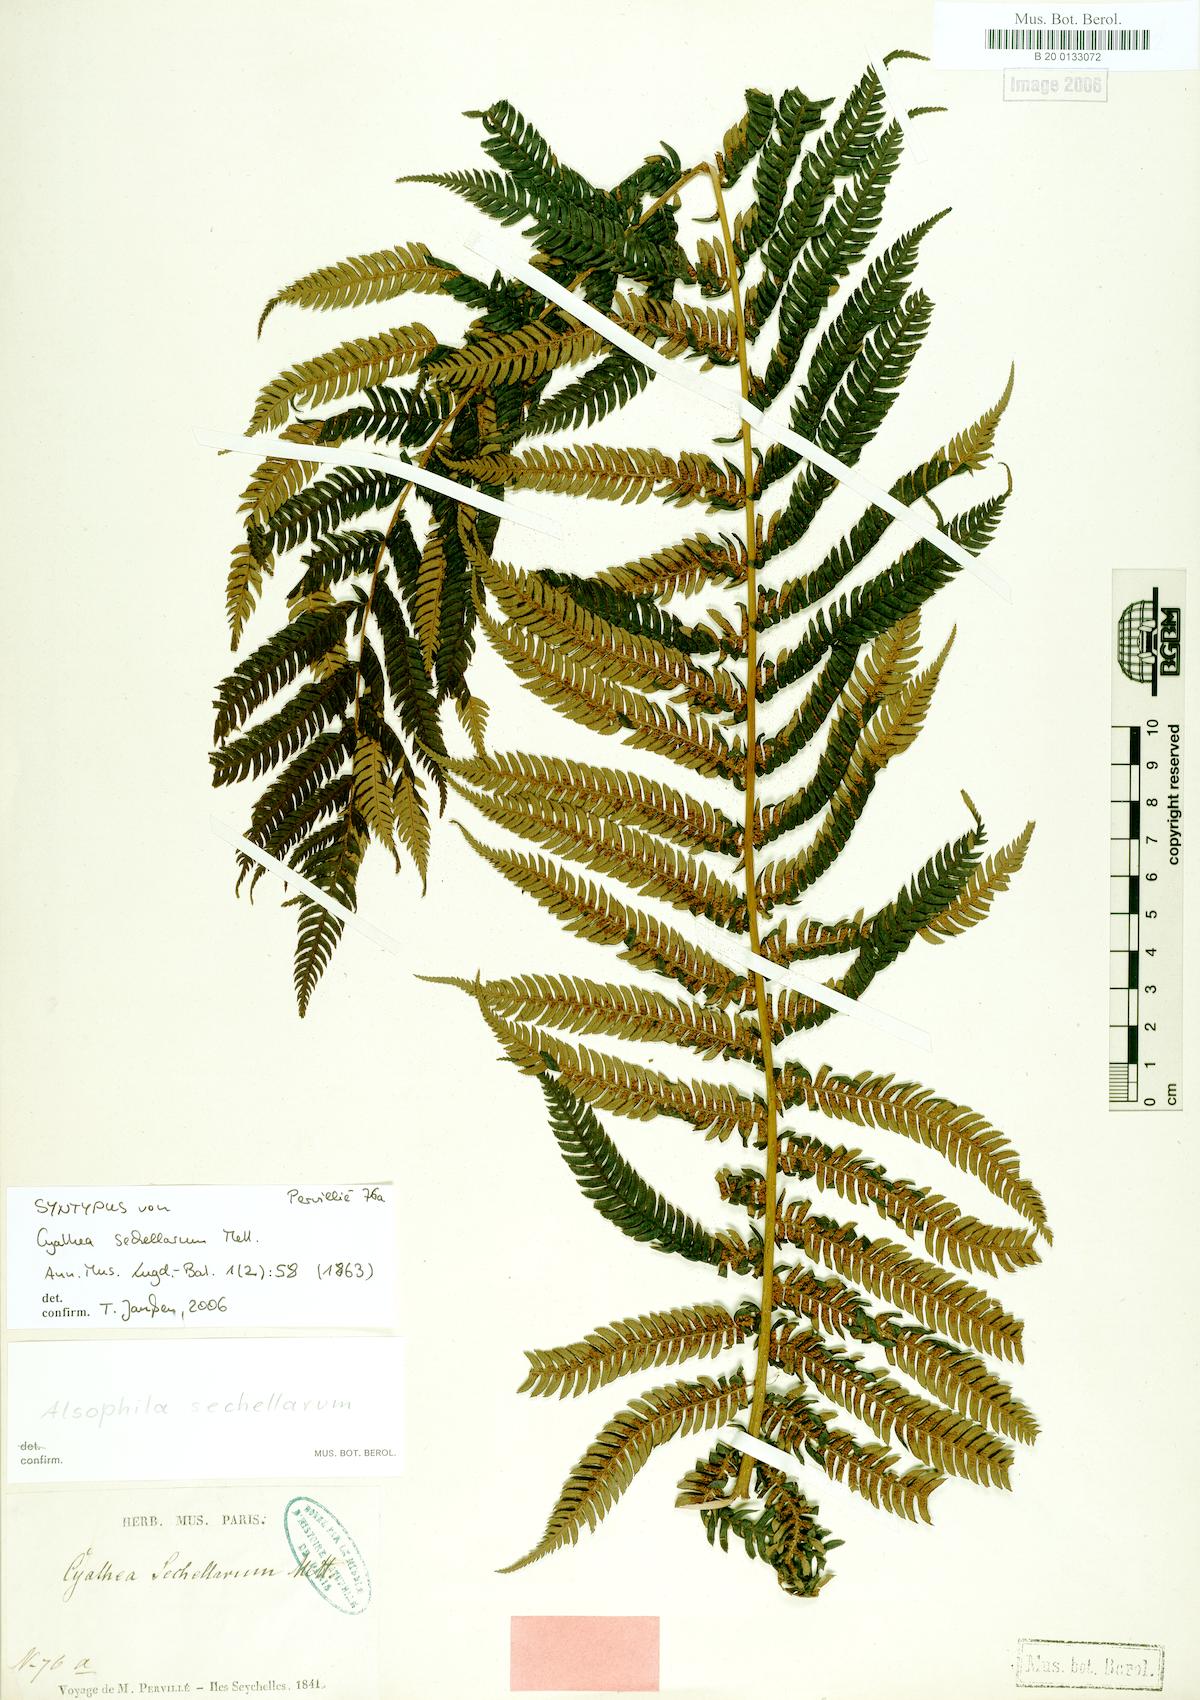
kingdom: Plantae
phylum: Tracheophyta
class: Polypodiopsida
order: Cyatheales
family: Cyatheaceae
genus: Alsophila
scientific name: Alsophila sechellarum
